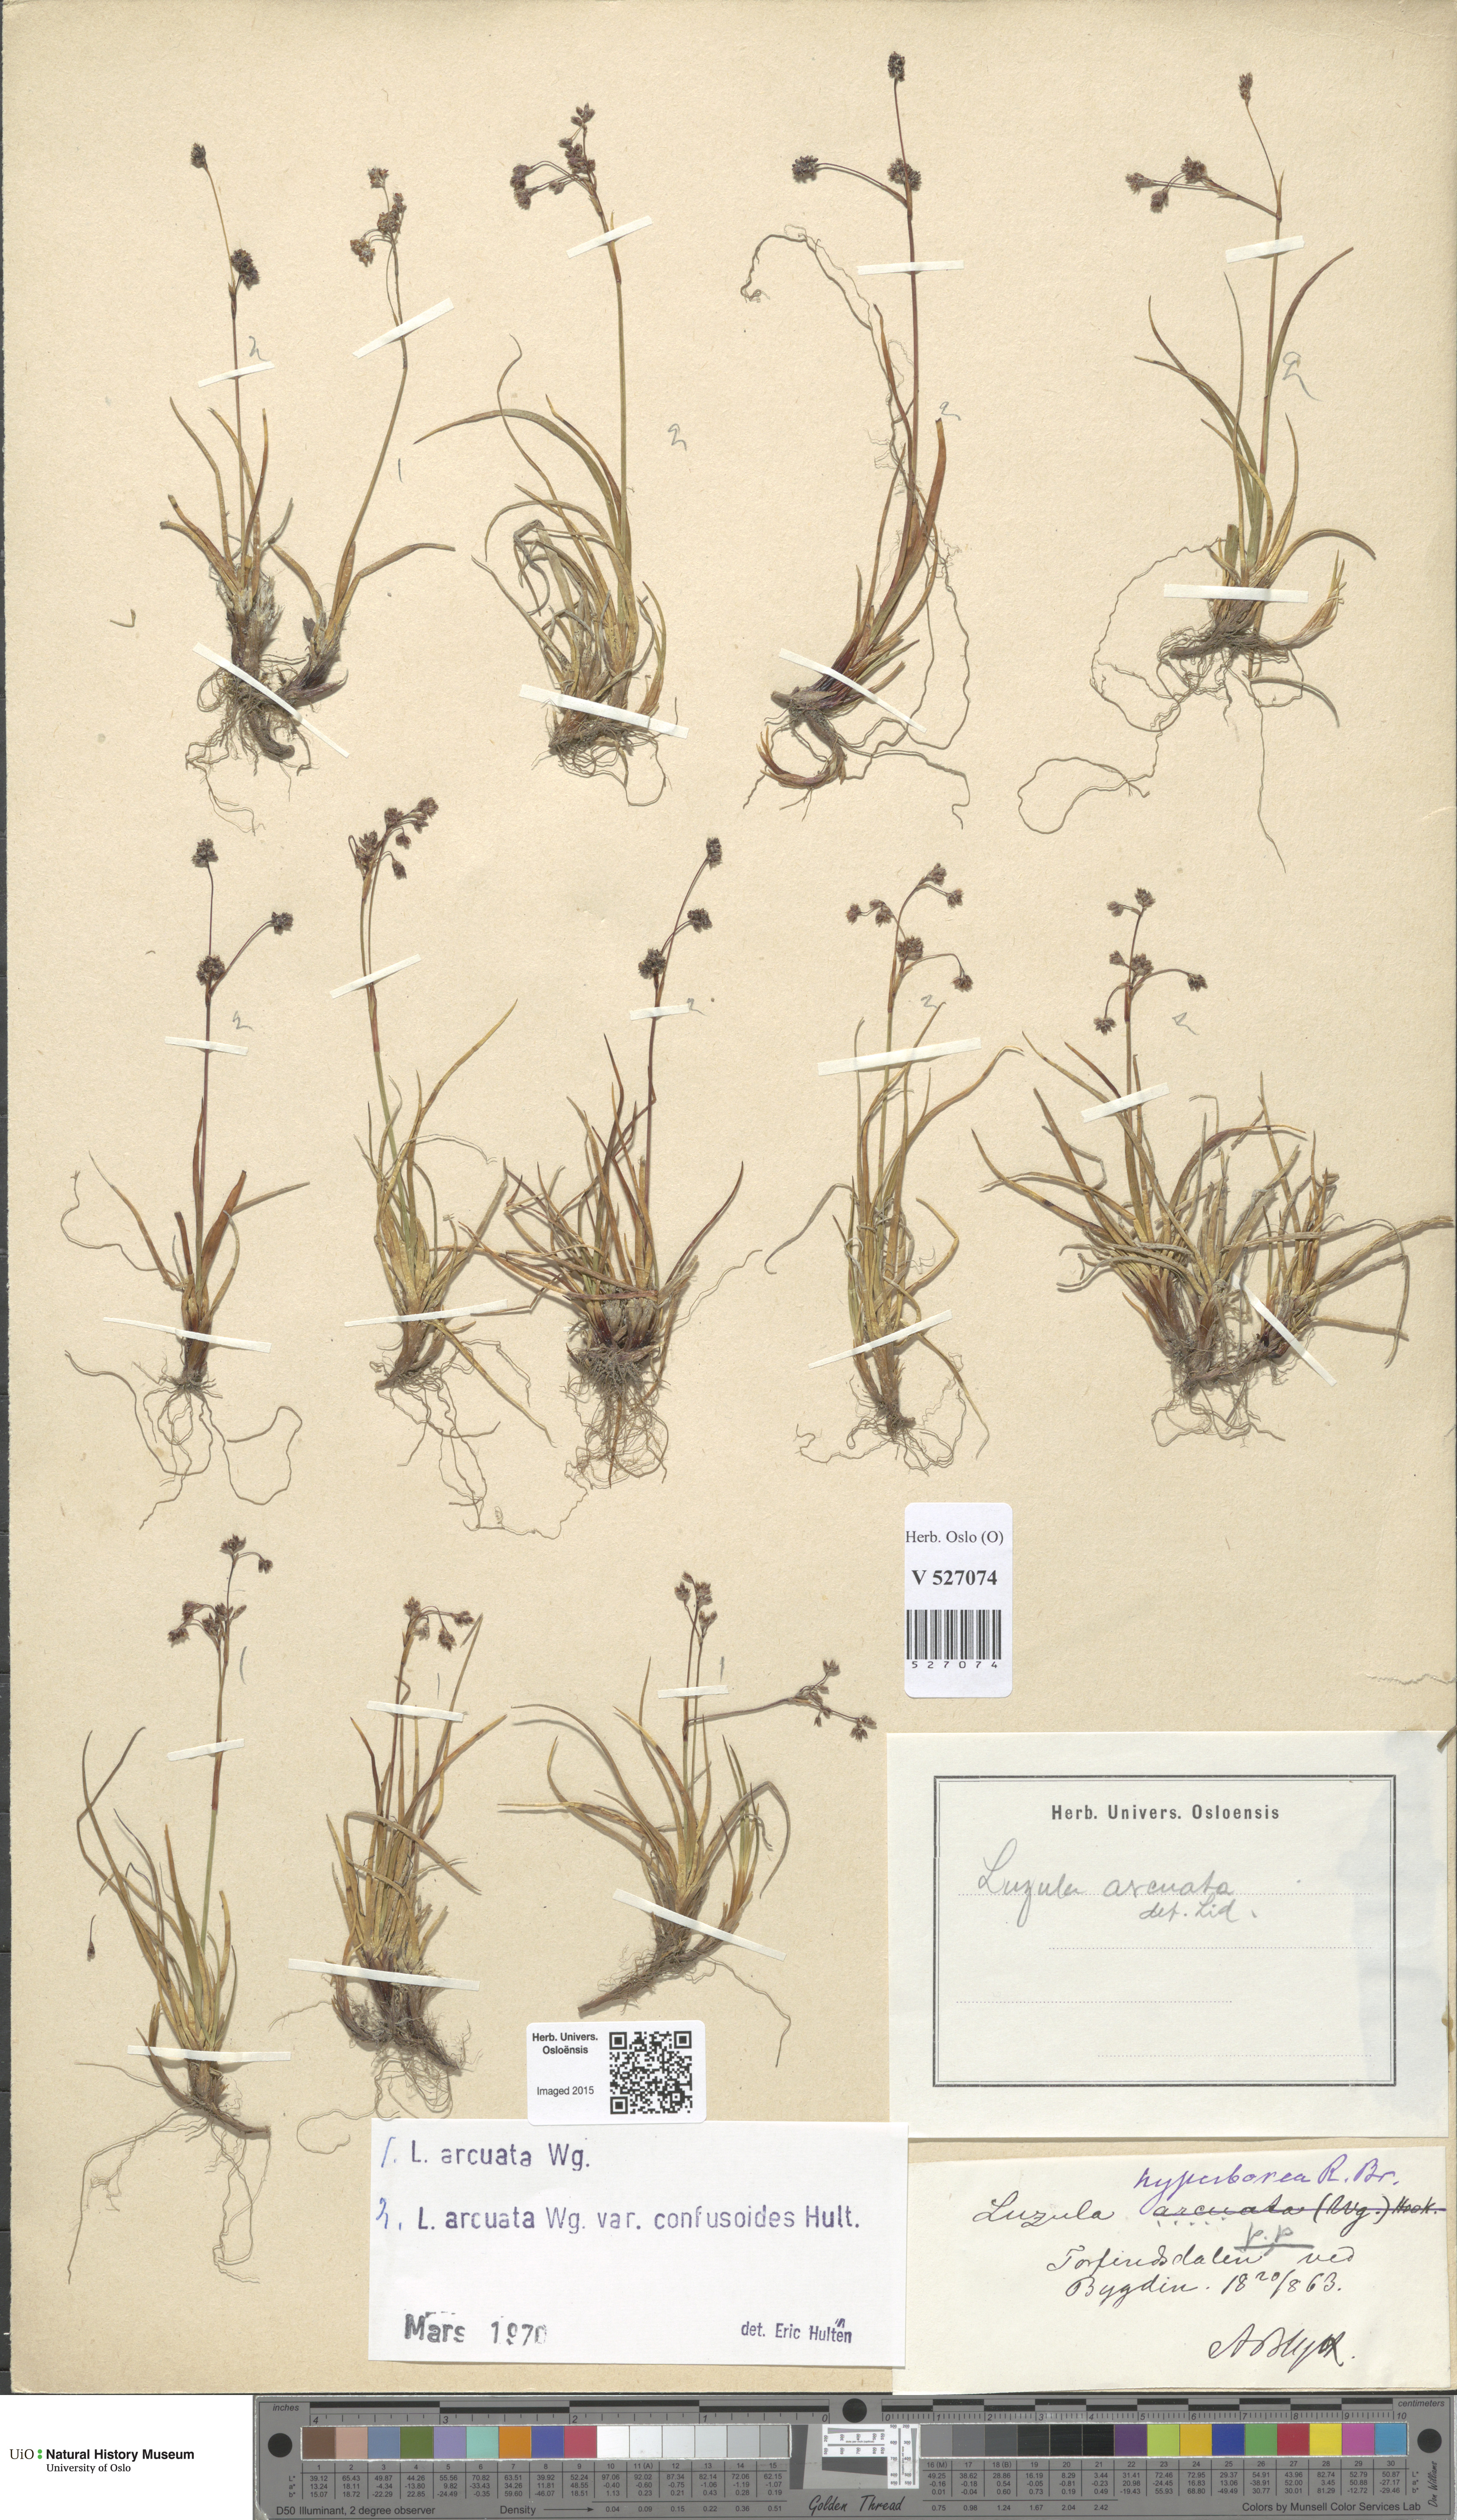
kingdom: Plantae
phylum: Tracheophyta
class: Liliopsida
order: Poales
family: Juncaceae
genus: Luzula
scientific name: Luzula arcuata
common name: Curved wood-rush
